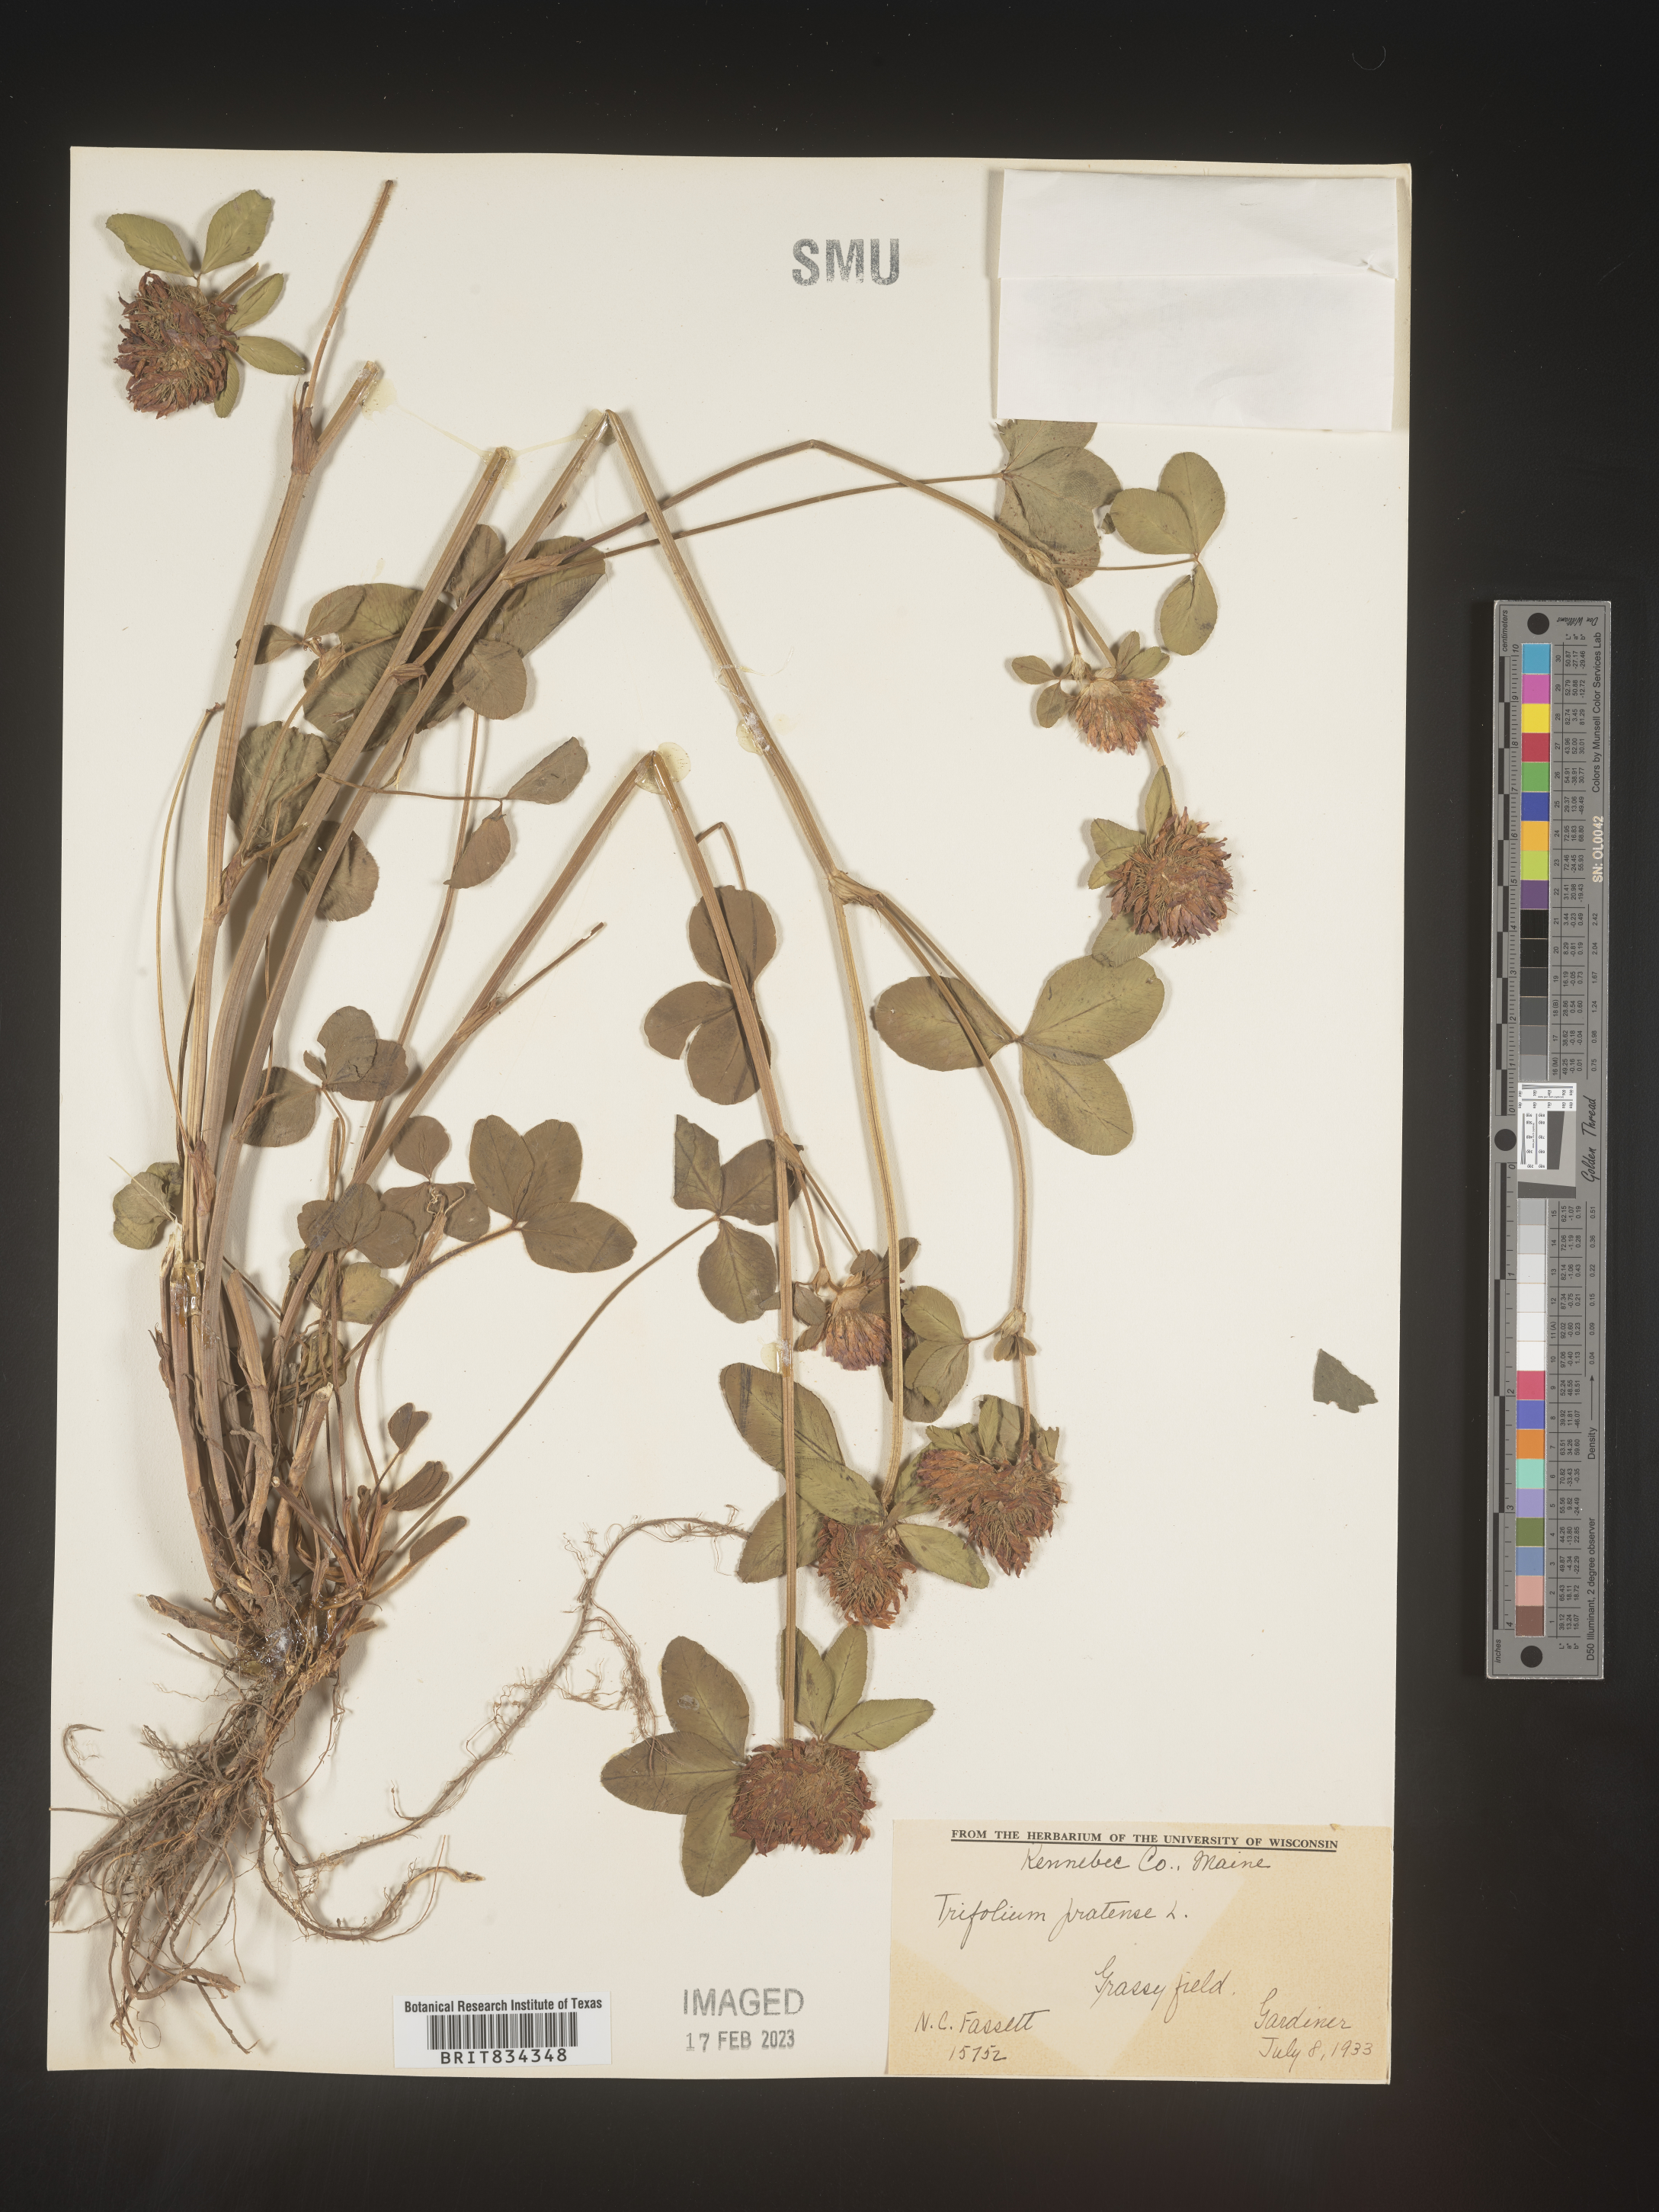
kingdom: Plantae
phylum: Tracheophyta
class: Magnoliopsida
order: Fabales
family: Fabaceae
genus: Trifolium
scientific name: Trifolium pratense
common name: Red clover
